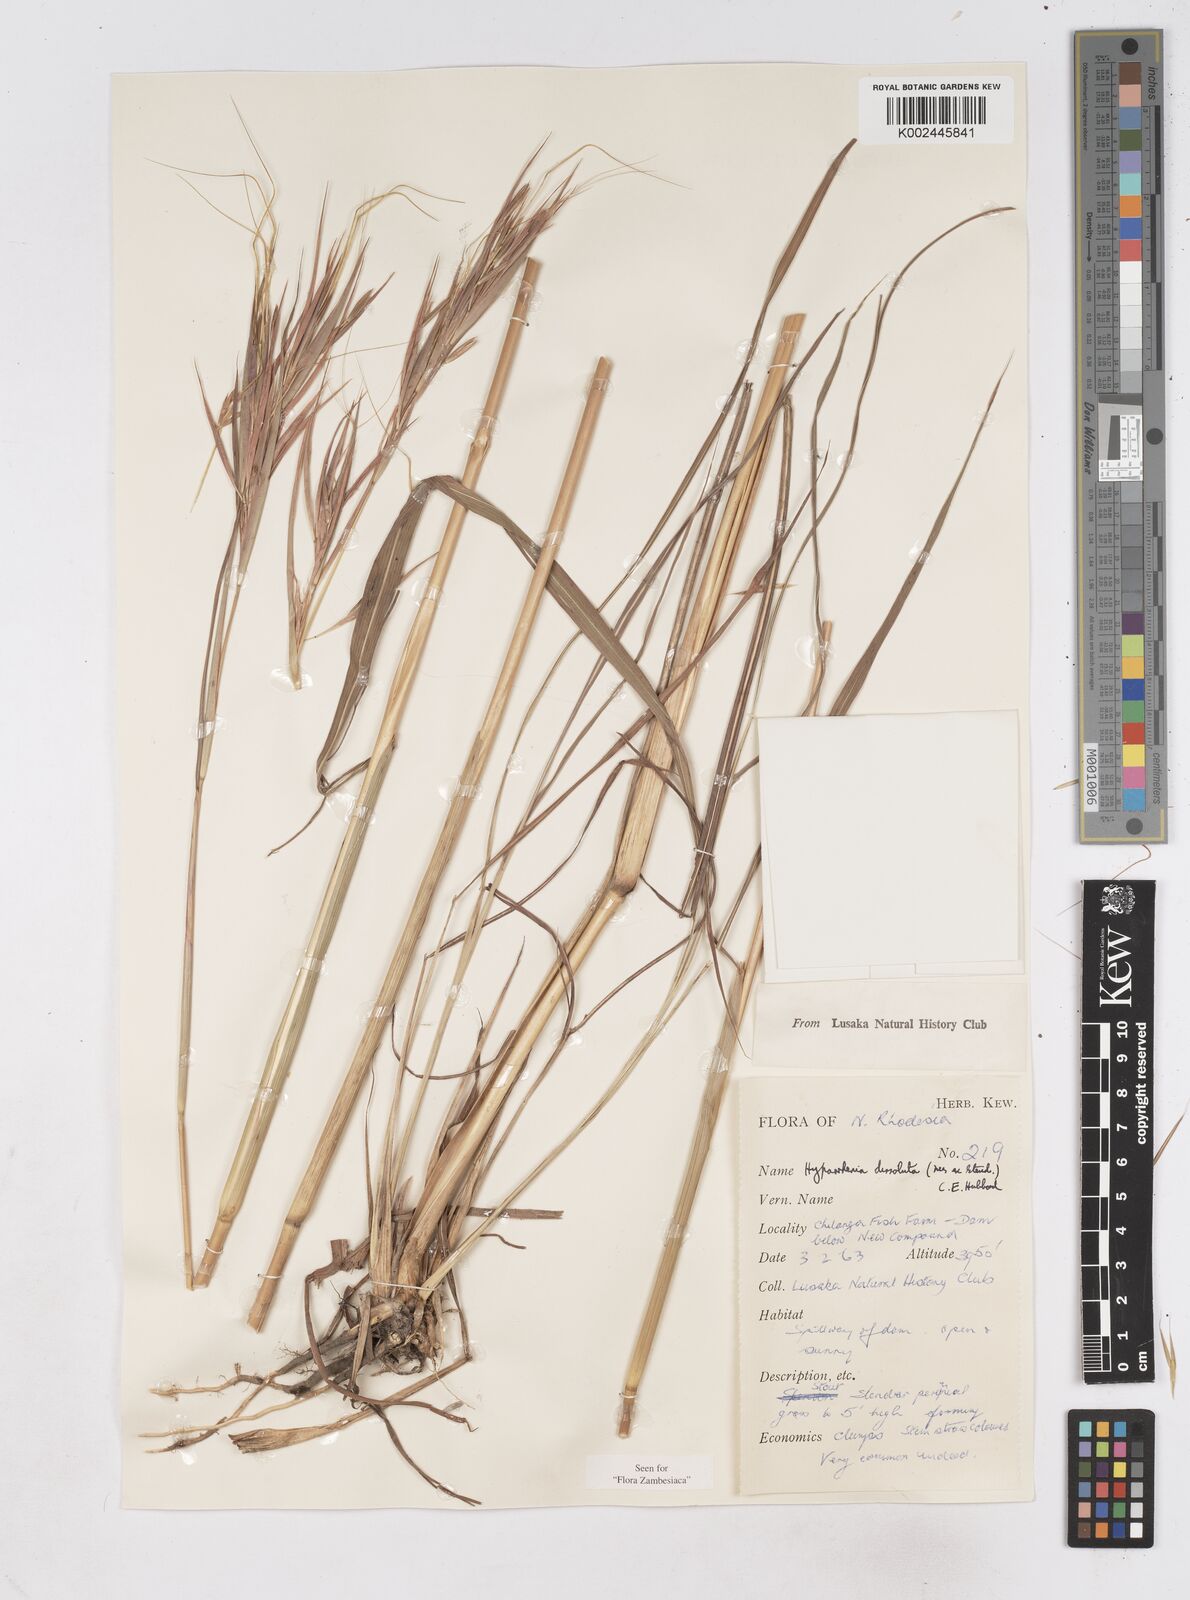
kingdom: Plantae
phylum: Tracheophyta
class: Liliopsida
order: Poales
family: Poaceae
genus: Hyperthelia
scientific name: Hyperthelia dissoluta
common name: Yellow thatching grass
